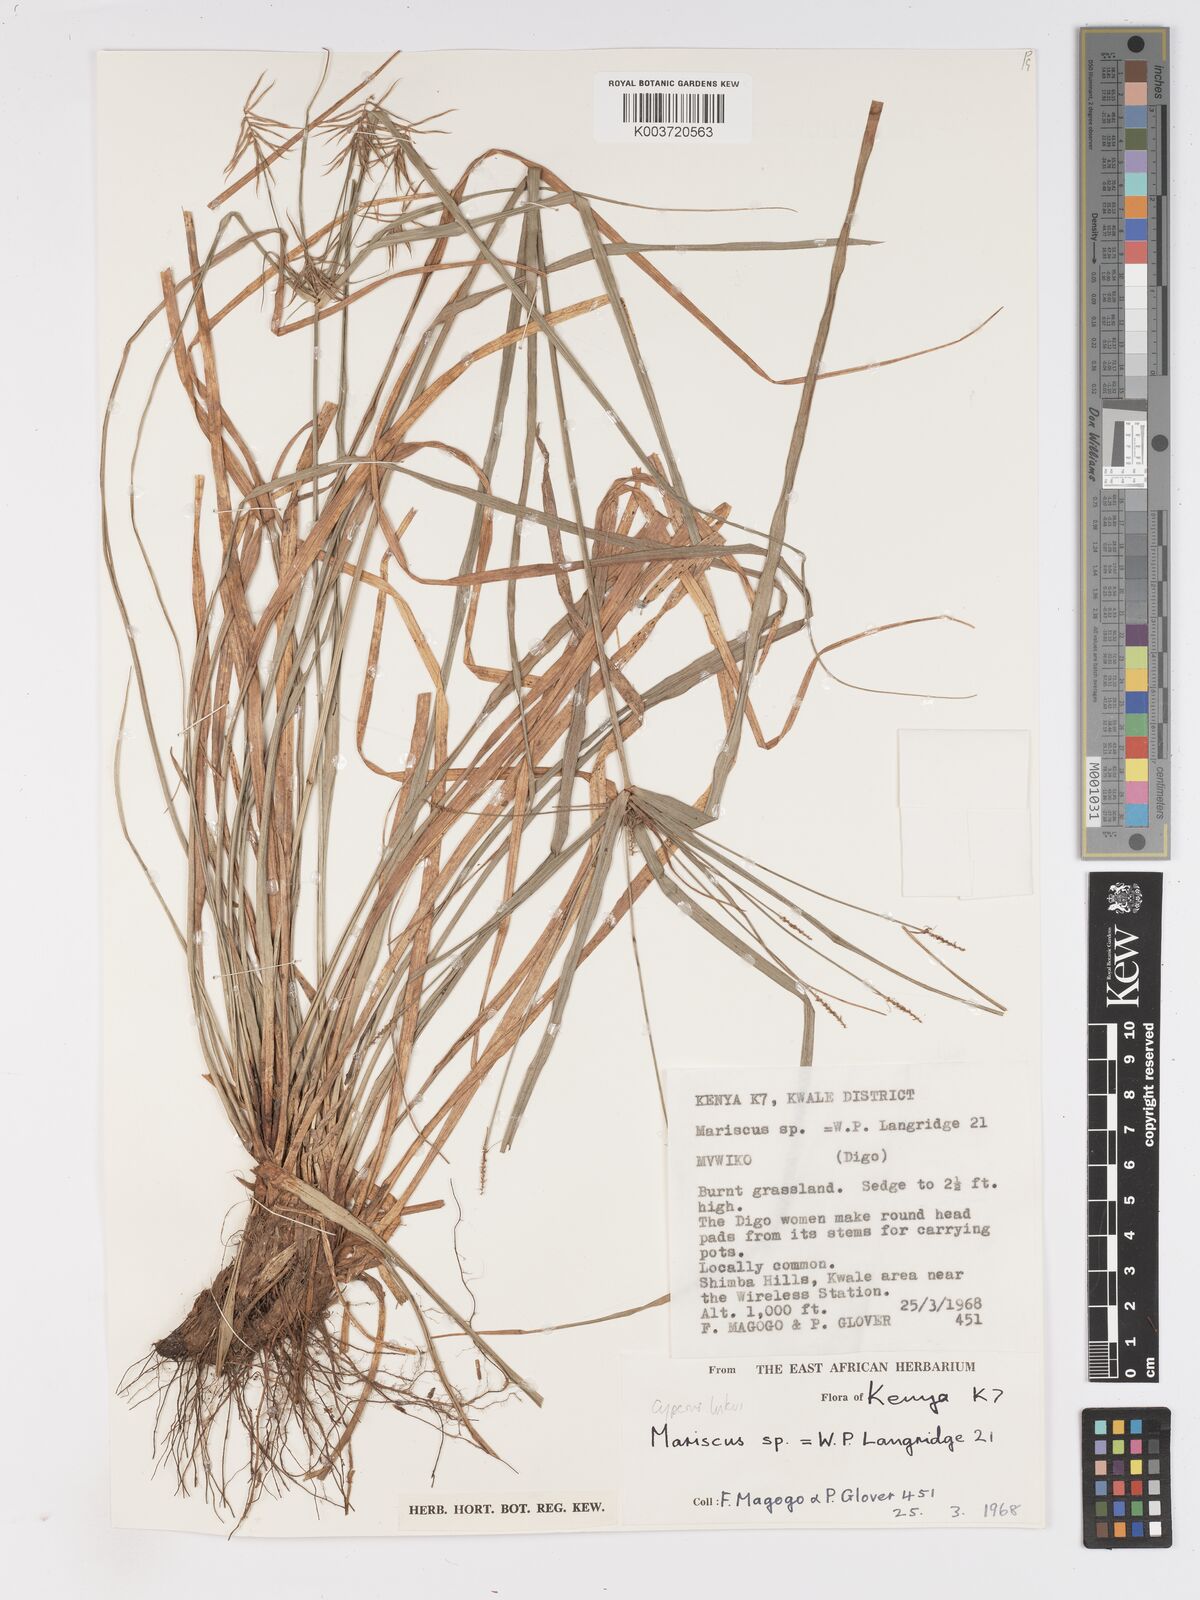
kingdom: Plantae
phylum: Tracheophyta
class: Liliopsida
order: Poales
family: Cyperaceae
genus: Cyperus
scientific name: Cyperus luteus
